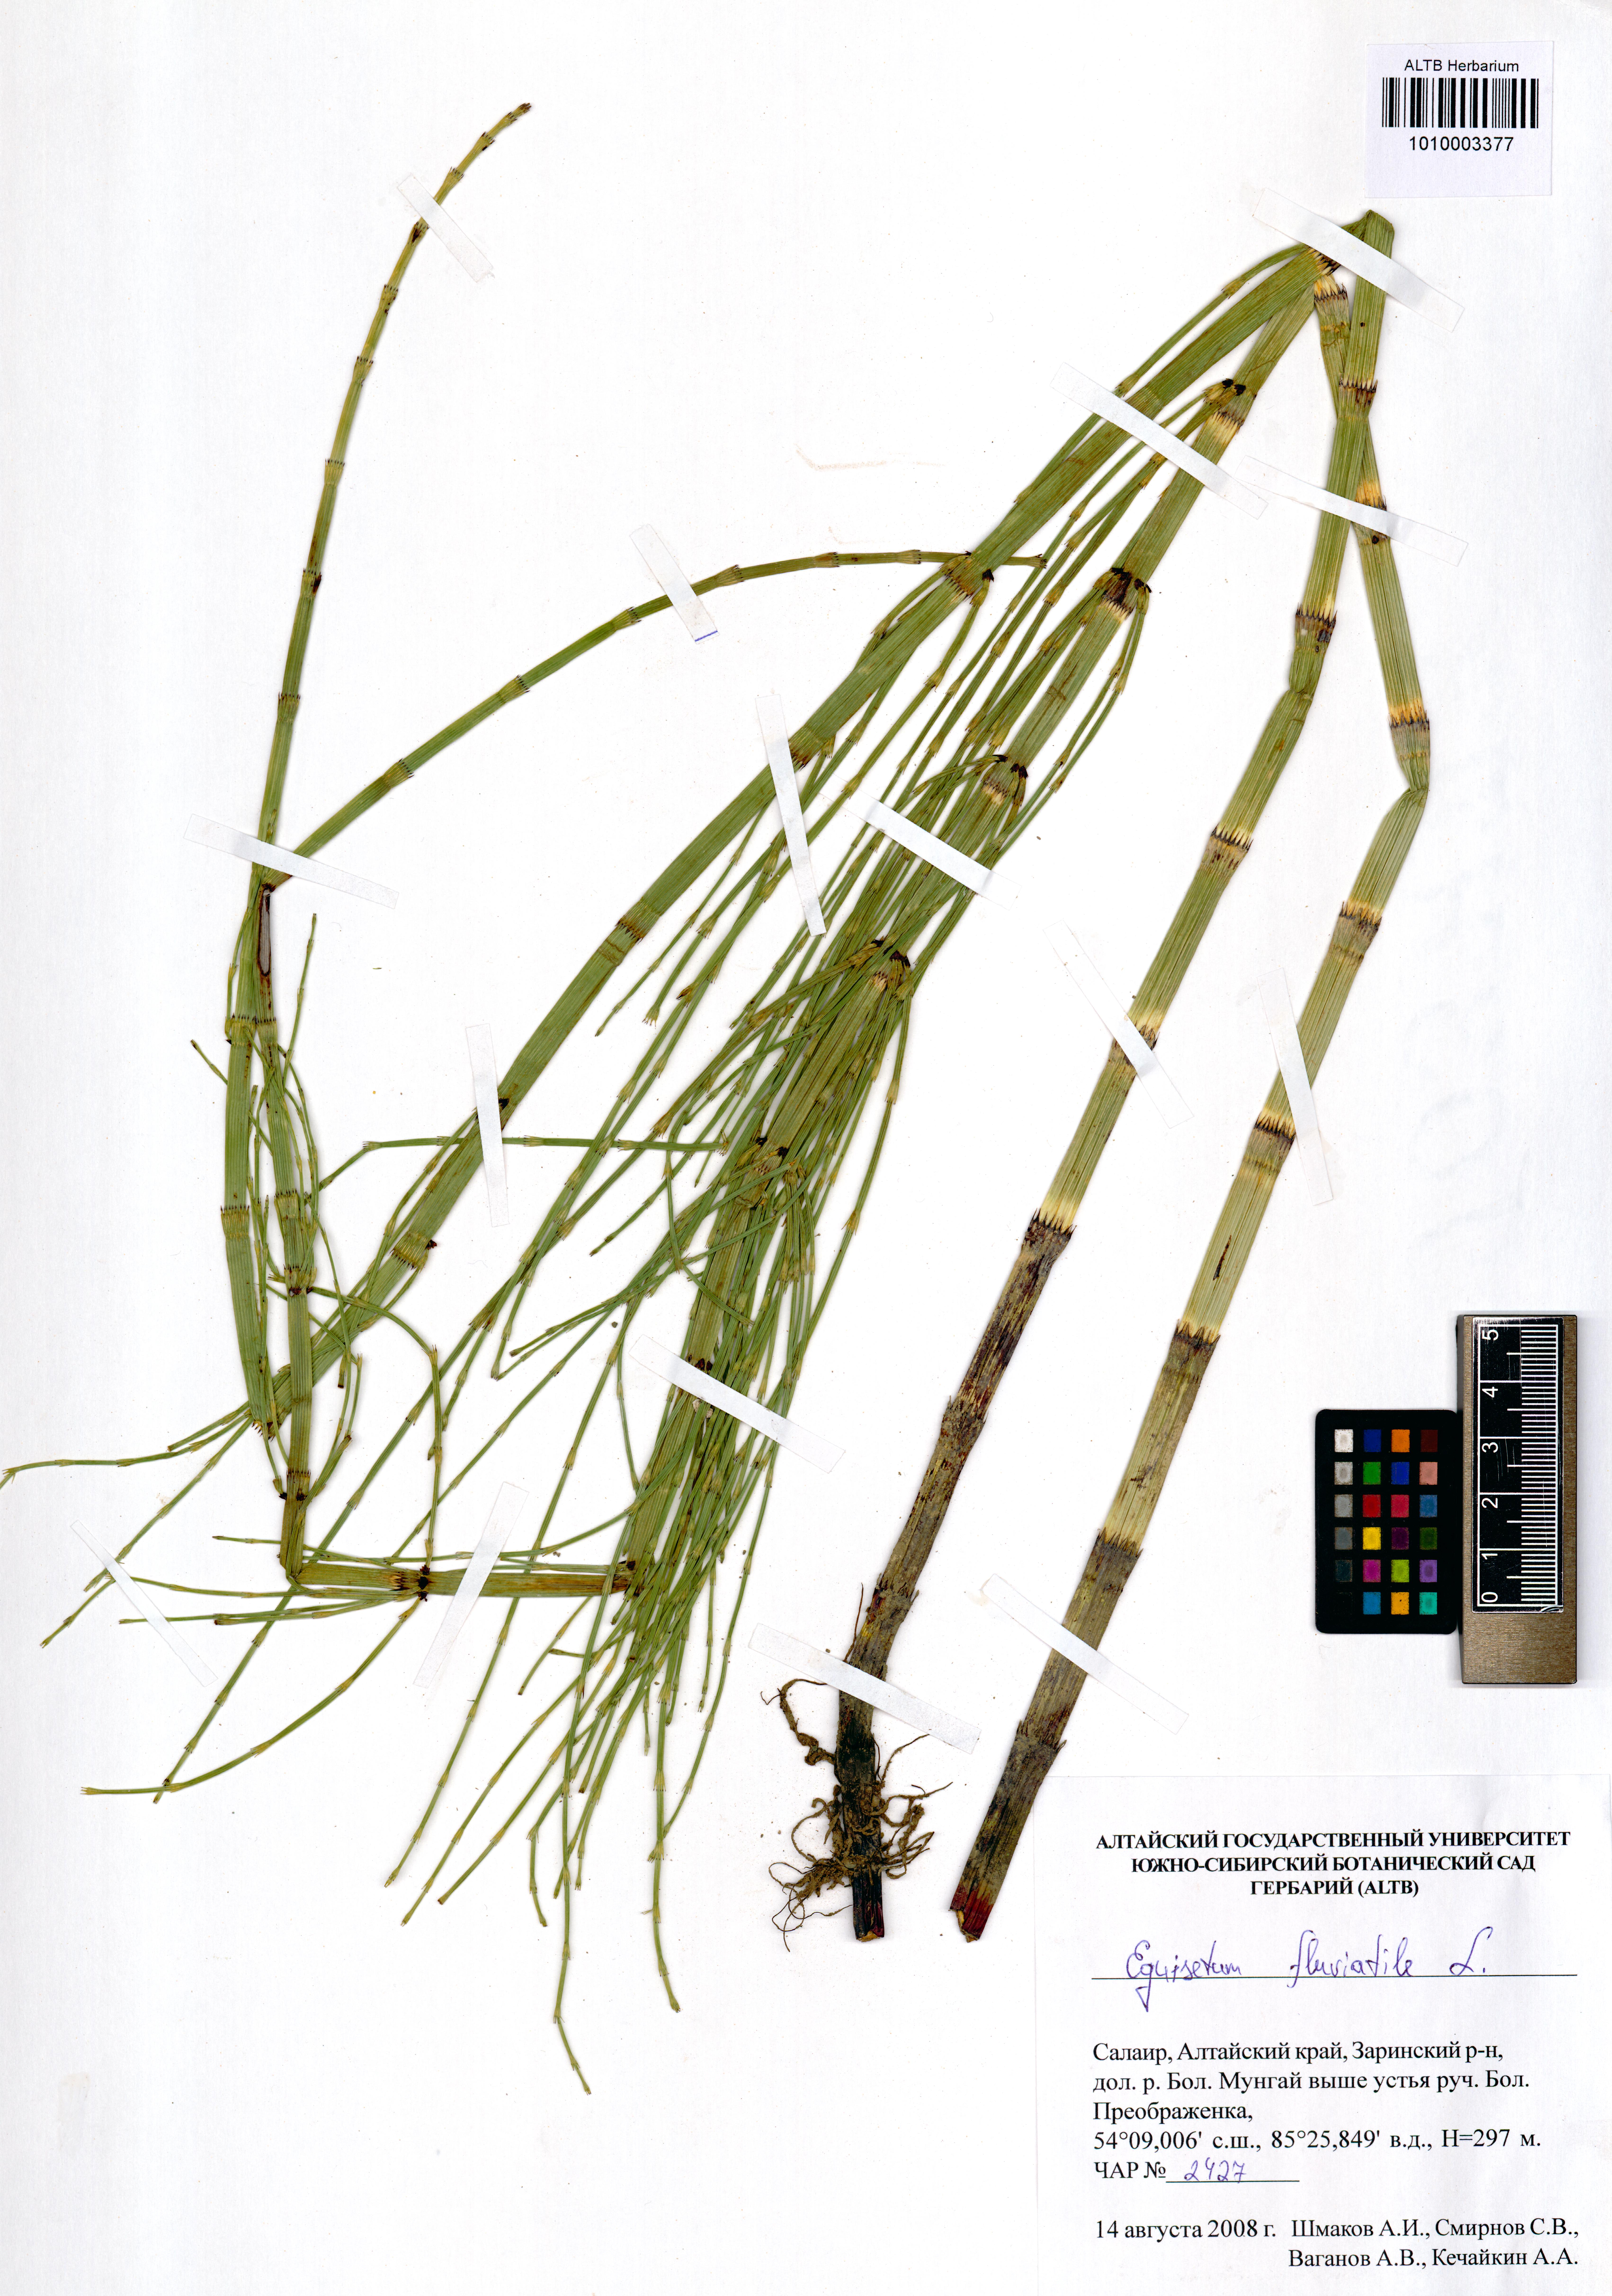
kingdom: Plantae
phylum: Tracheophyta
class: Polypodiopsida
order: Equisetales
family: Equisetaceae
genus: Equisetum
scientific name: Equisetum fluviatile
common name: Water horsetail
